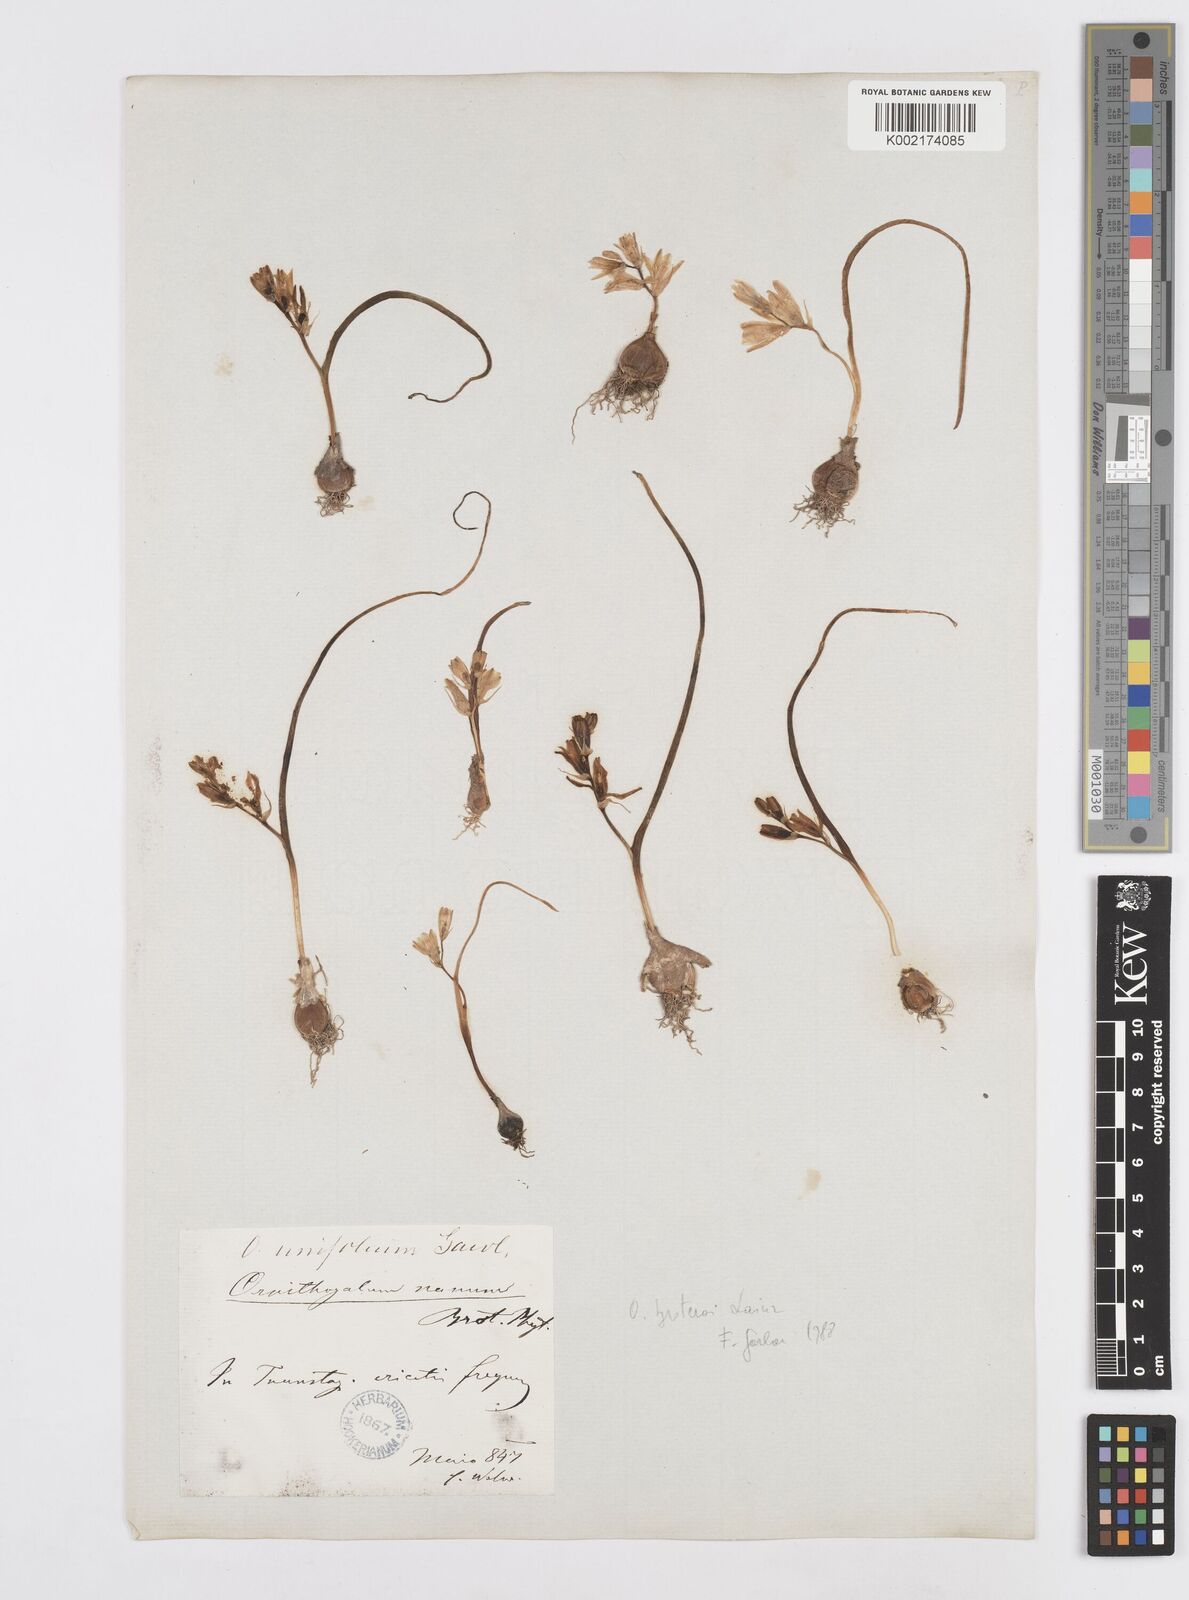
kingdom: Plantae
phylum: Tracheophyta
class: Liliopsida
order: Asparagales
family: Asparagaceae
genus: Ornithogalum
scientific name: Ornithogalum broteroi
